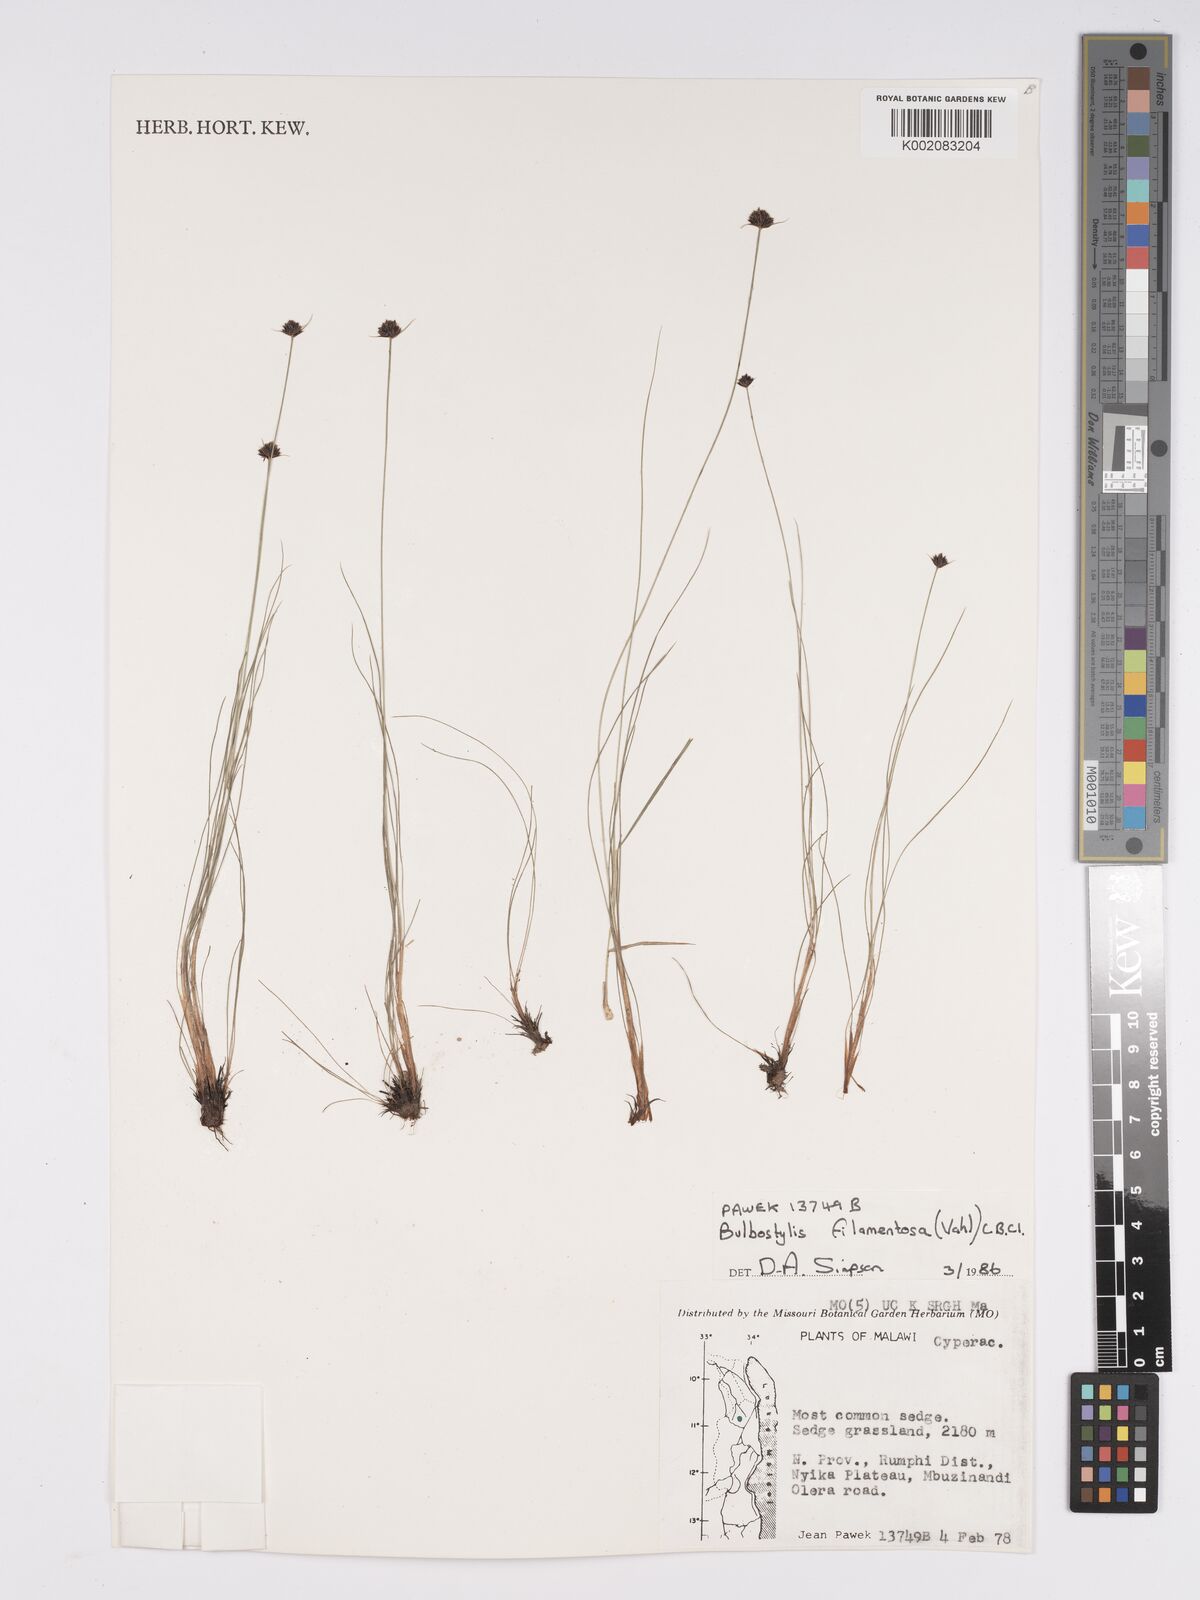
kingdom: Plantae
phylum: Tracheophyta
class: Liliopsida
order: Poales
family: Cyperaceae
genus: Bulbostylis
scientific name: Bulbostylis filamentosa
